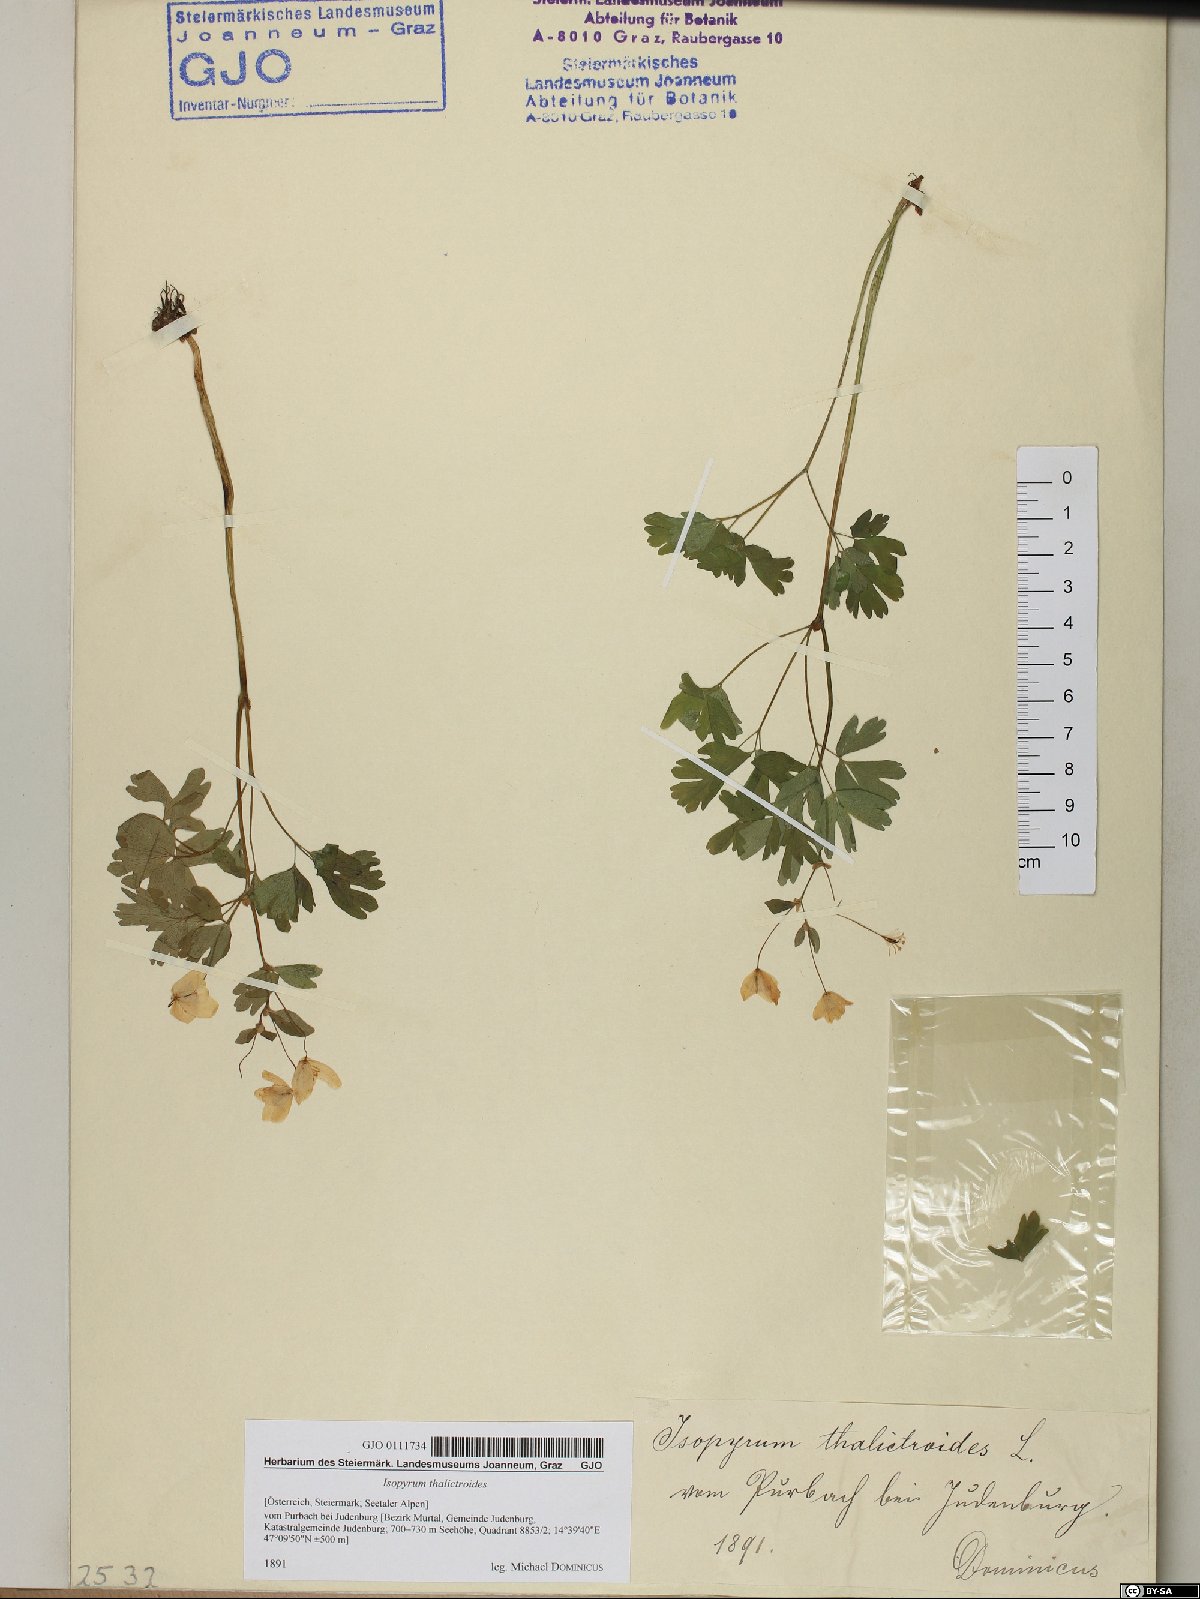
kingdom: Plantae
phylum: Tracheophyta
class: Magnoliopsida
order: Ranunculales
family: Ranunculaceae
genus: Isopyrum
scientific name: Isopyrum thalictroides
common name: Isopyrum
